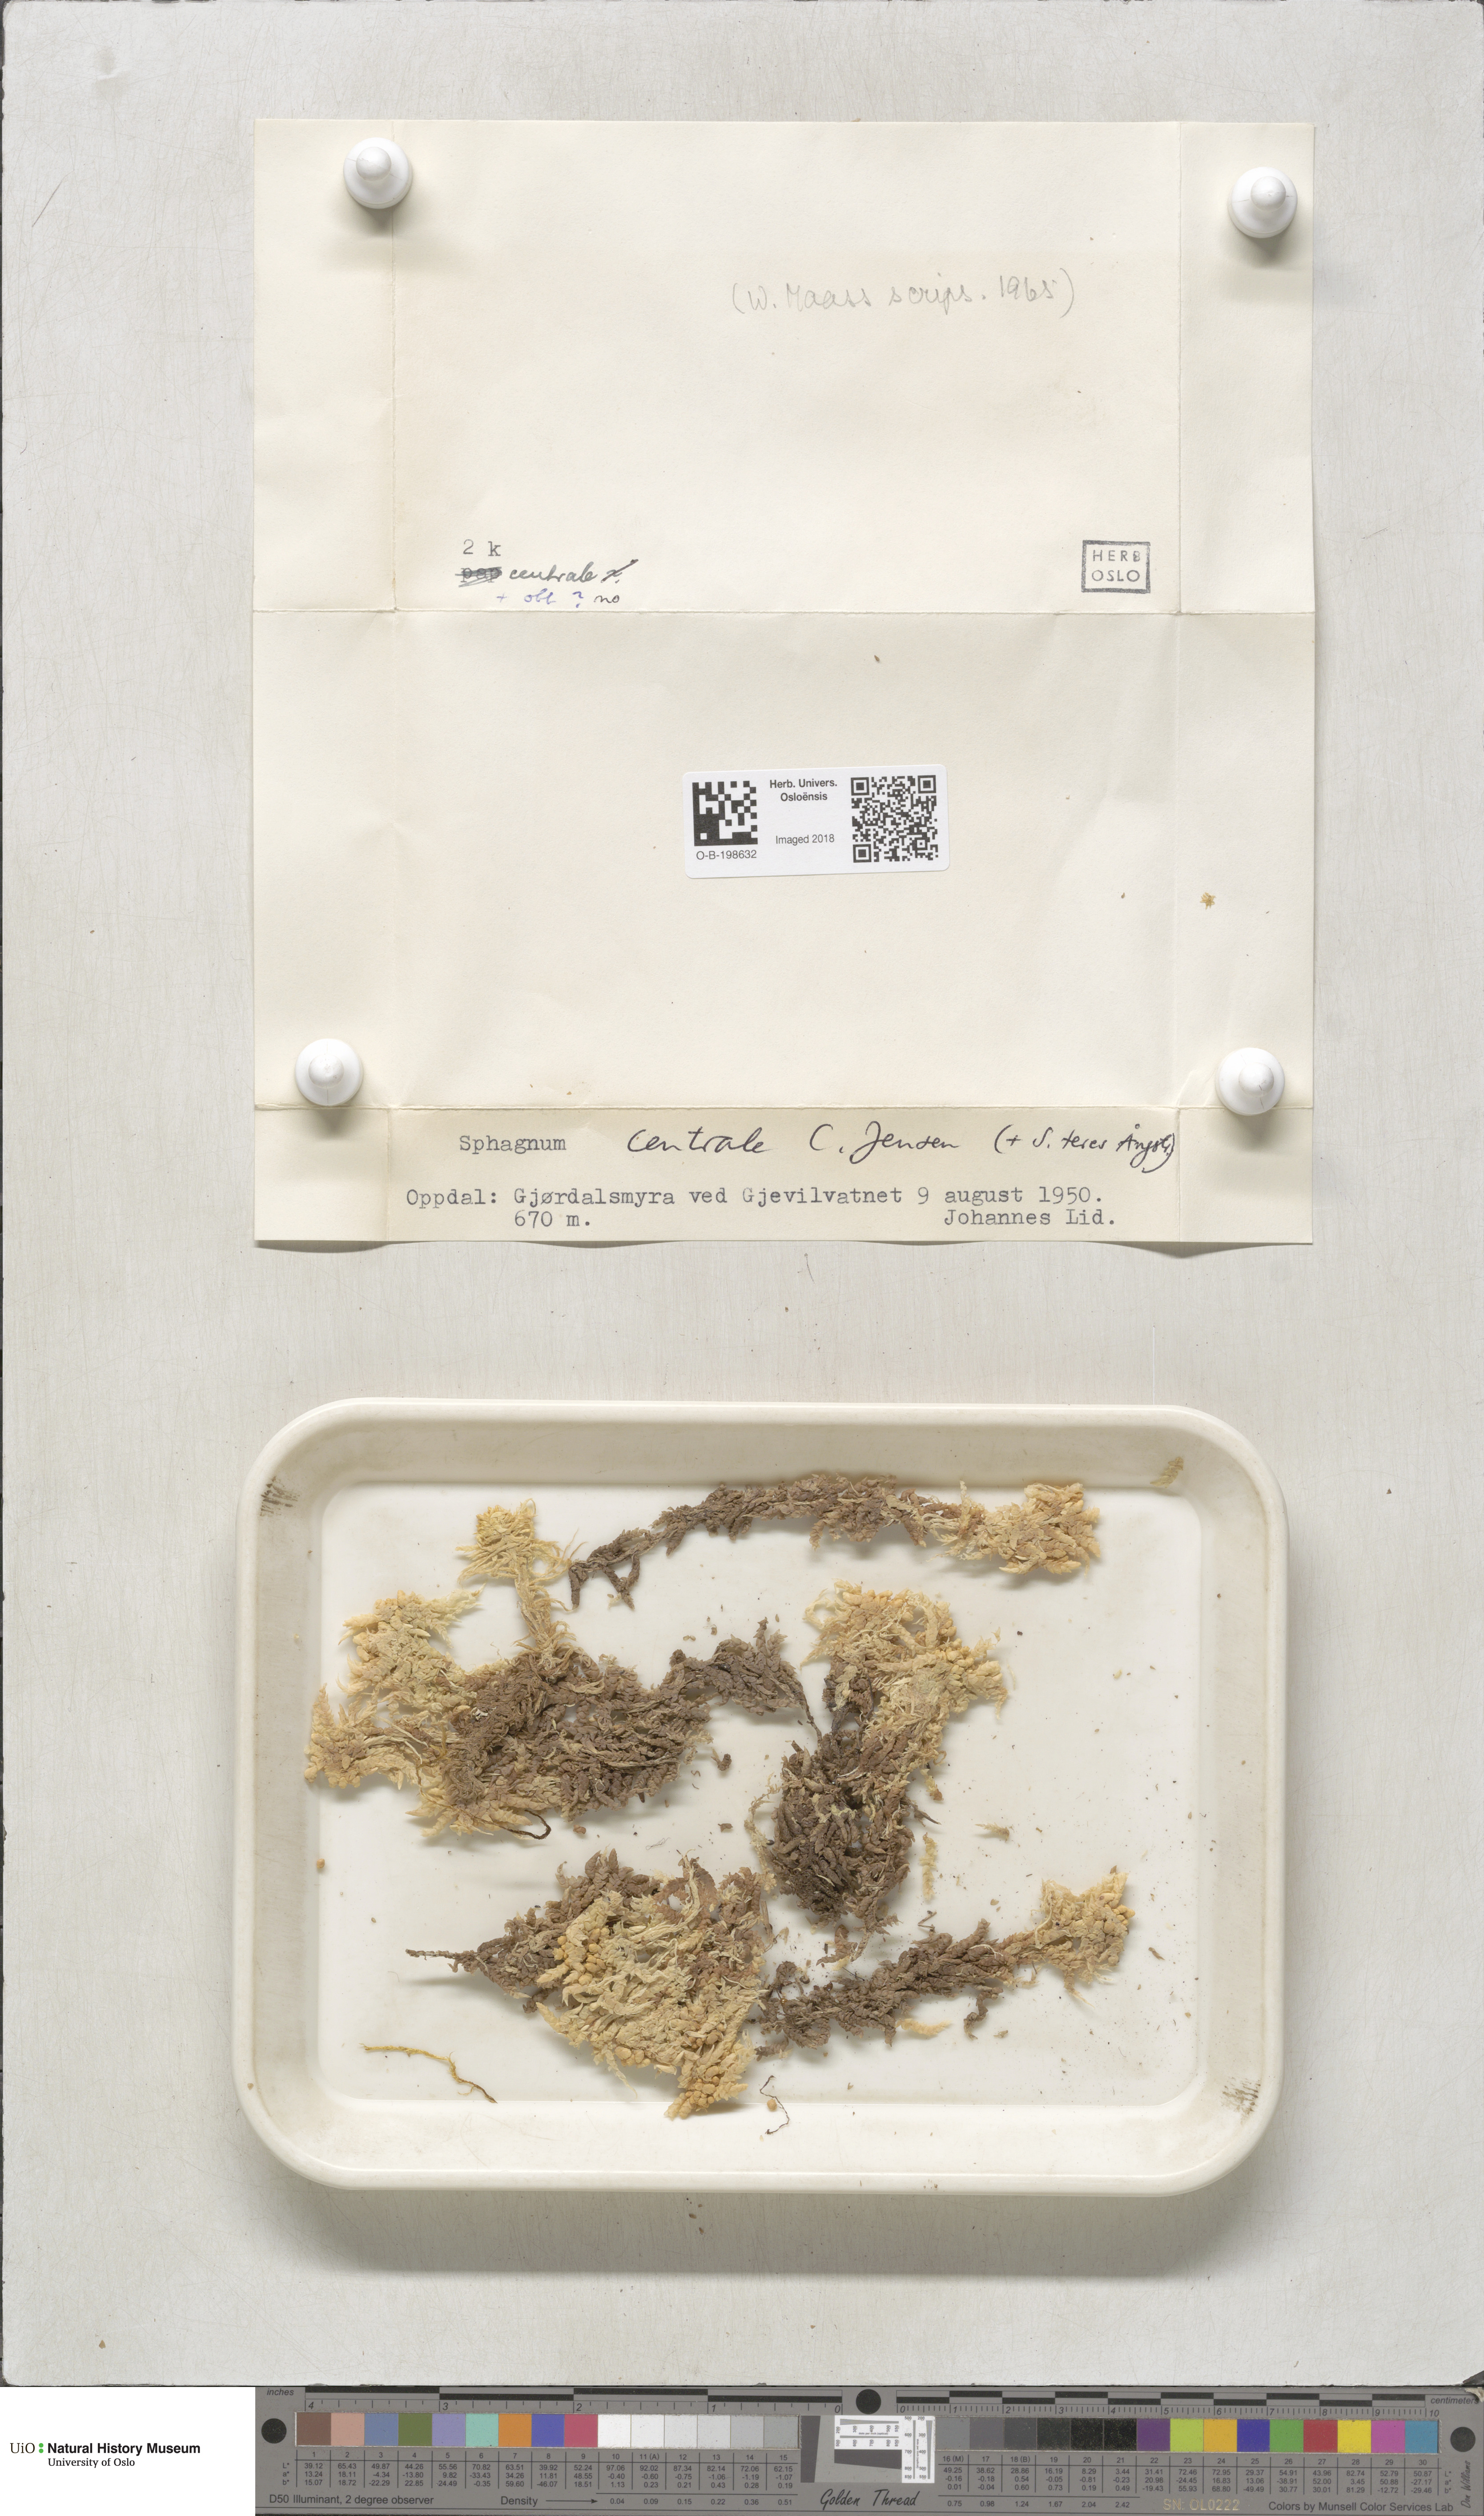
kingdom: Plantae
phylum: Bryophyta
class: Sphagnopsida
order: Sphagnales
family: Sphagnaceae
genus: Sphagnum
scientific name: Sphagnum centrale
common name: Central peat moss
